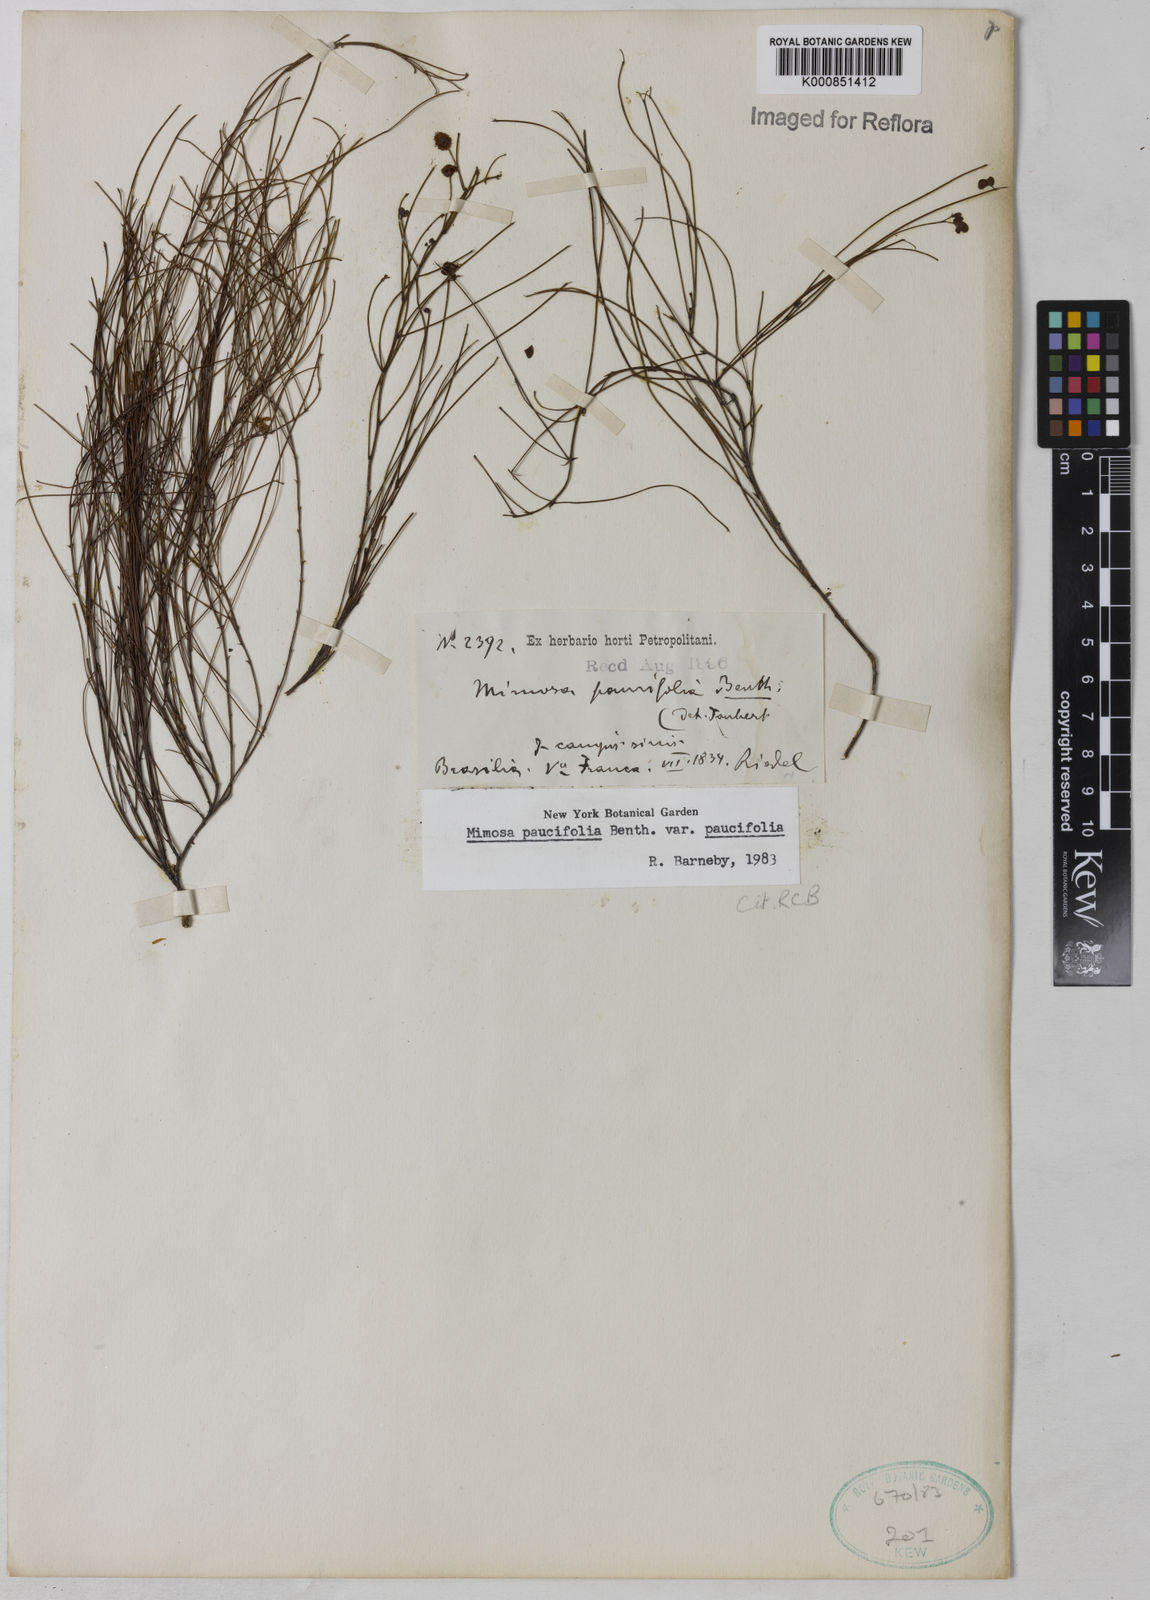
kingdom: Plantae
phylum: Tracheophyta
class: Magnoliopsida
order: Fabales
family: Fabaceae
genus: Mimosa
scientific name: Mimosa paucifolia
